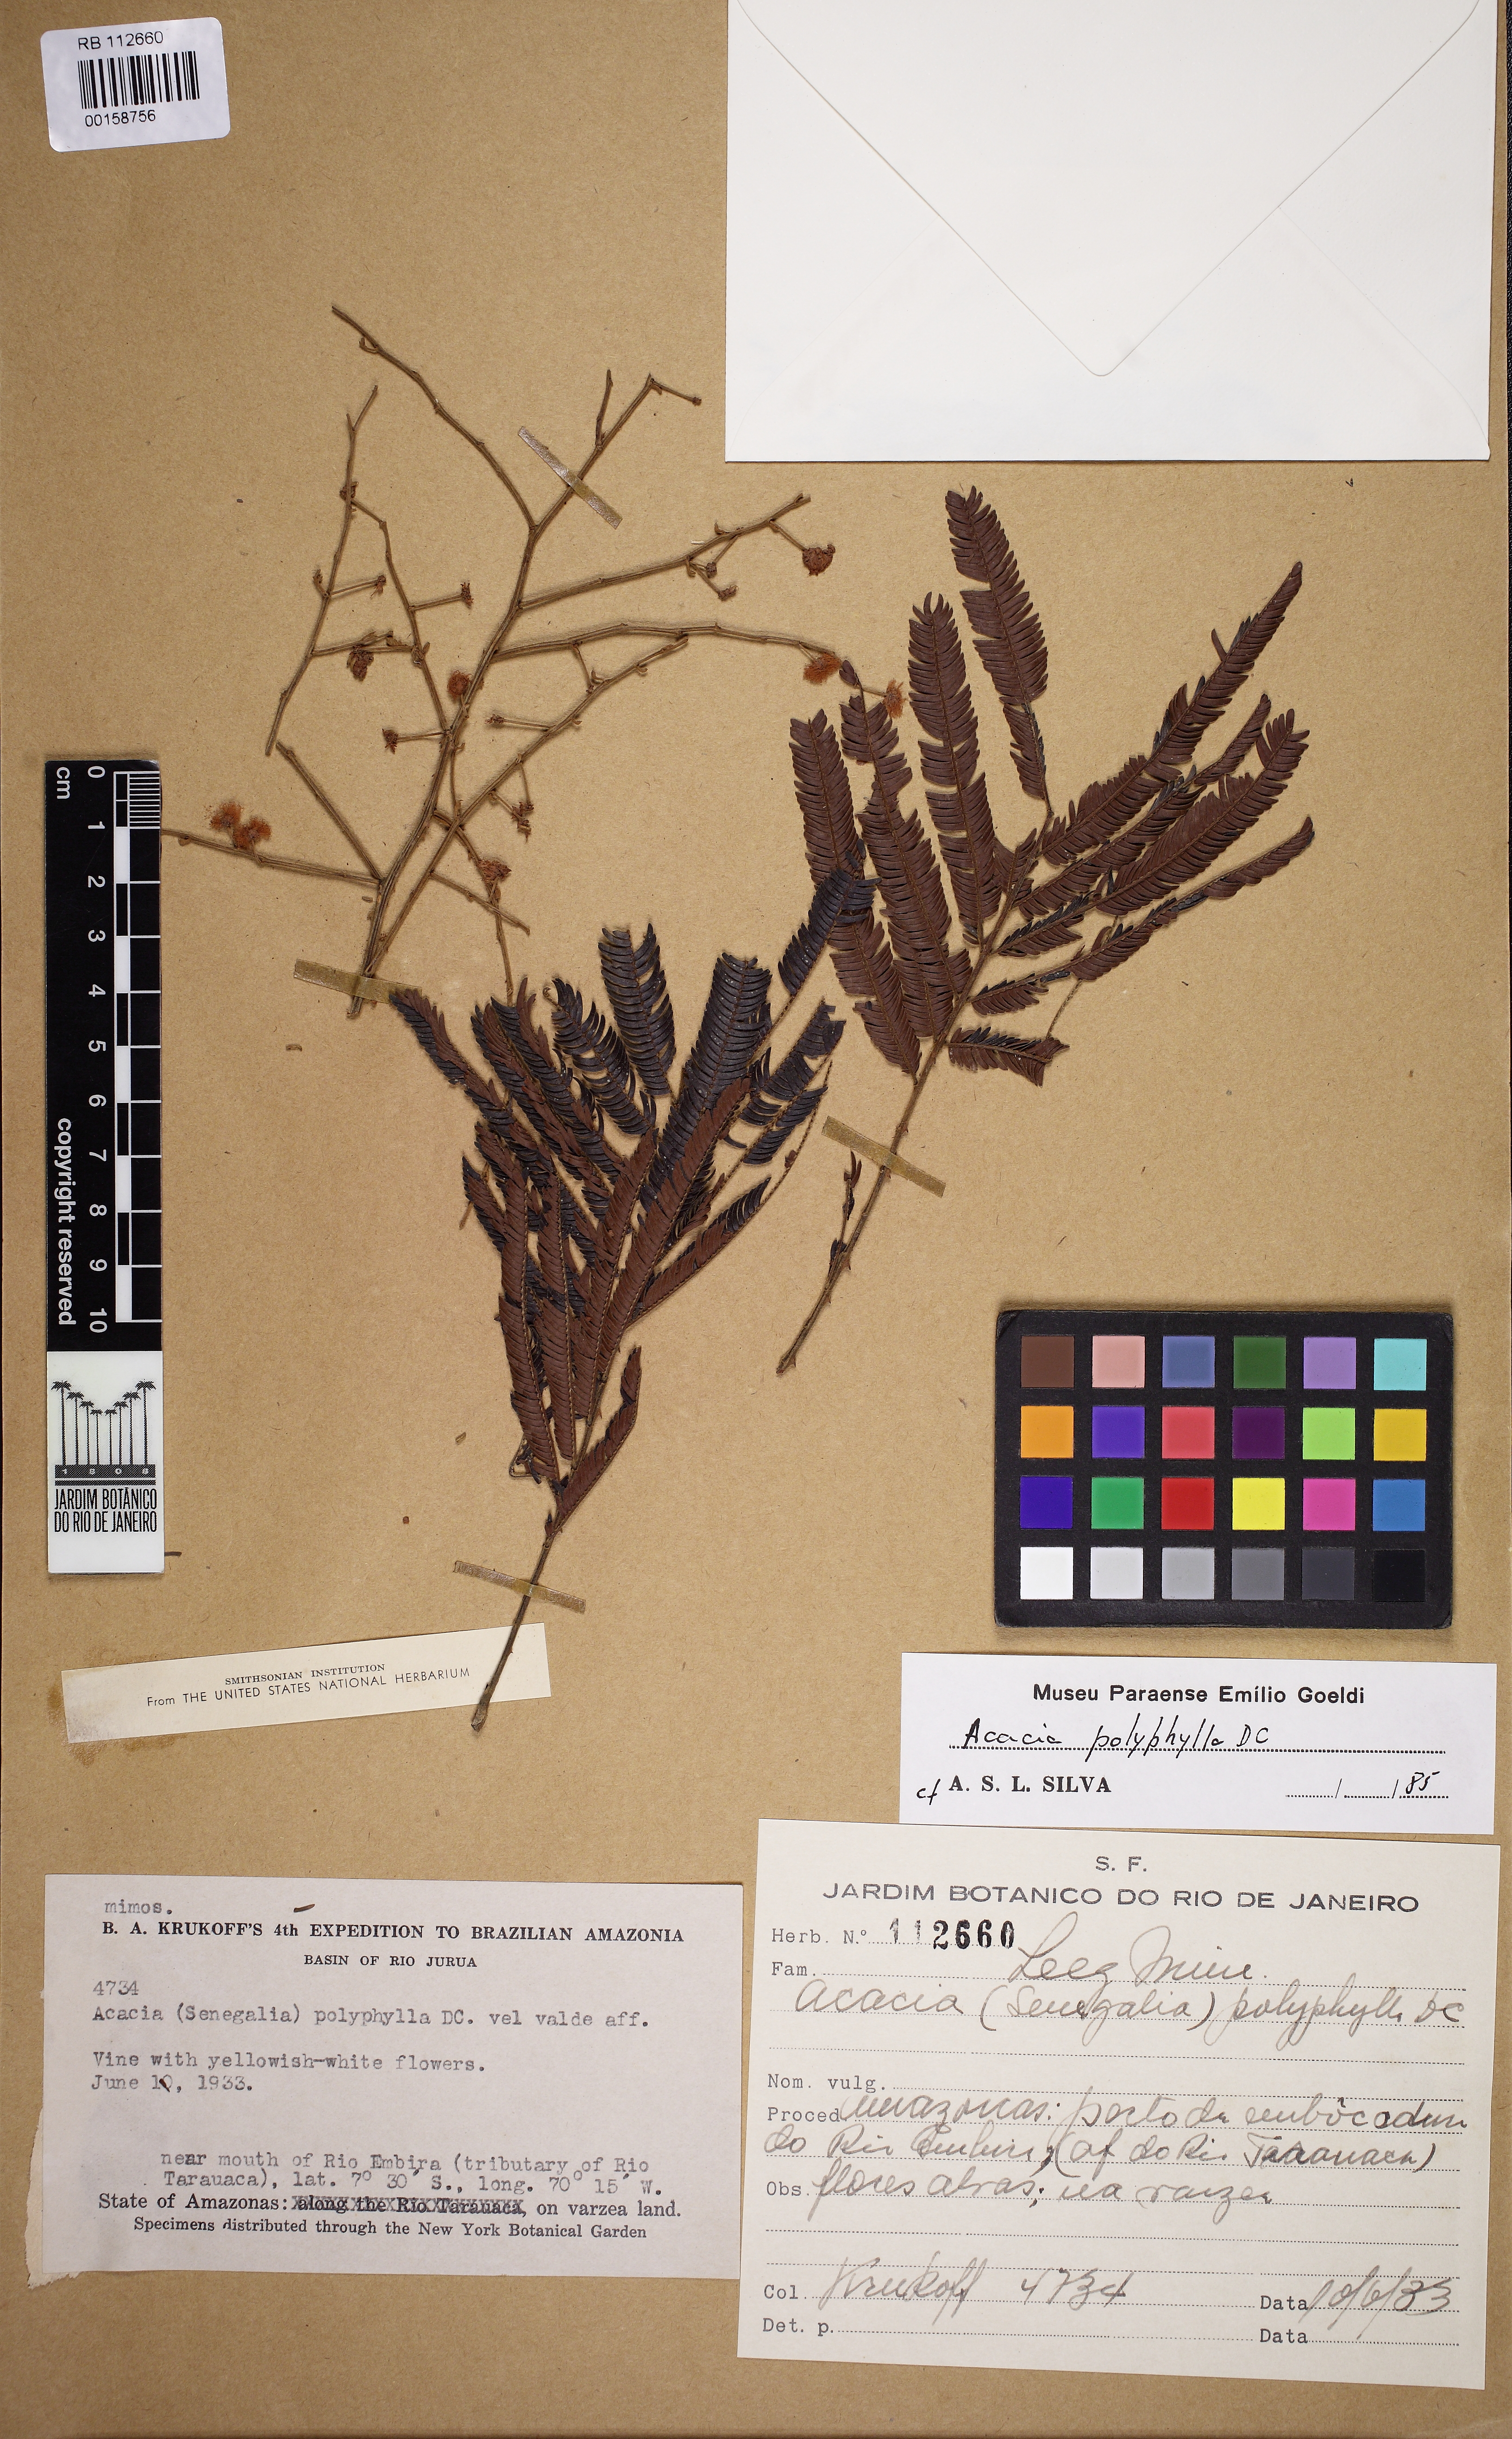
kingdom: Plantae
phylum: Tracheophyta
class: Magnoliopsida
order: Fabales
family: Fabaceae
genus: Senegalia
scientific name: Senegalia polyphylla
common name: White-tamarind
